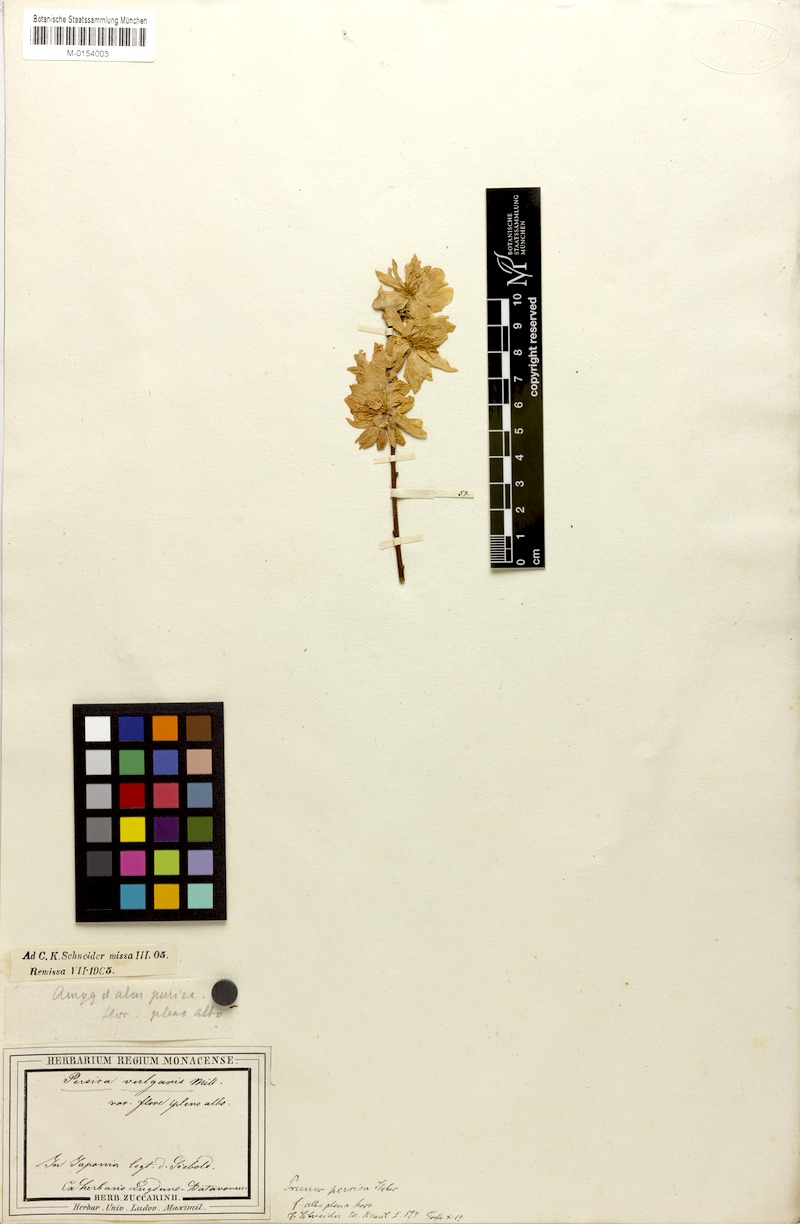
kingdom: Plantae
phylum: Tracheophyta
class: Magnoliopsida
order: Rosales
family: Rosaceae
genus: Prunus
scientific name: Prunus persica
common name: Peach
